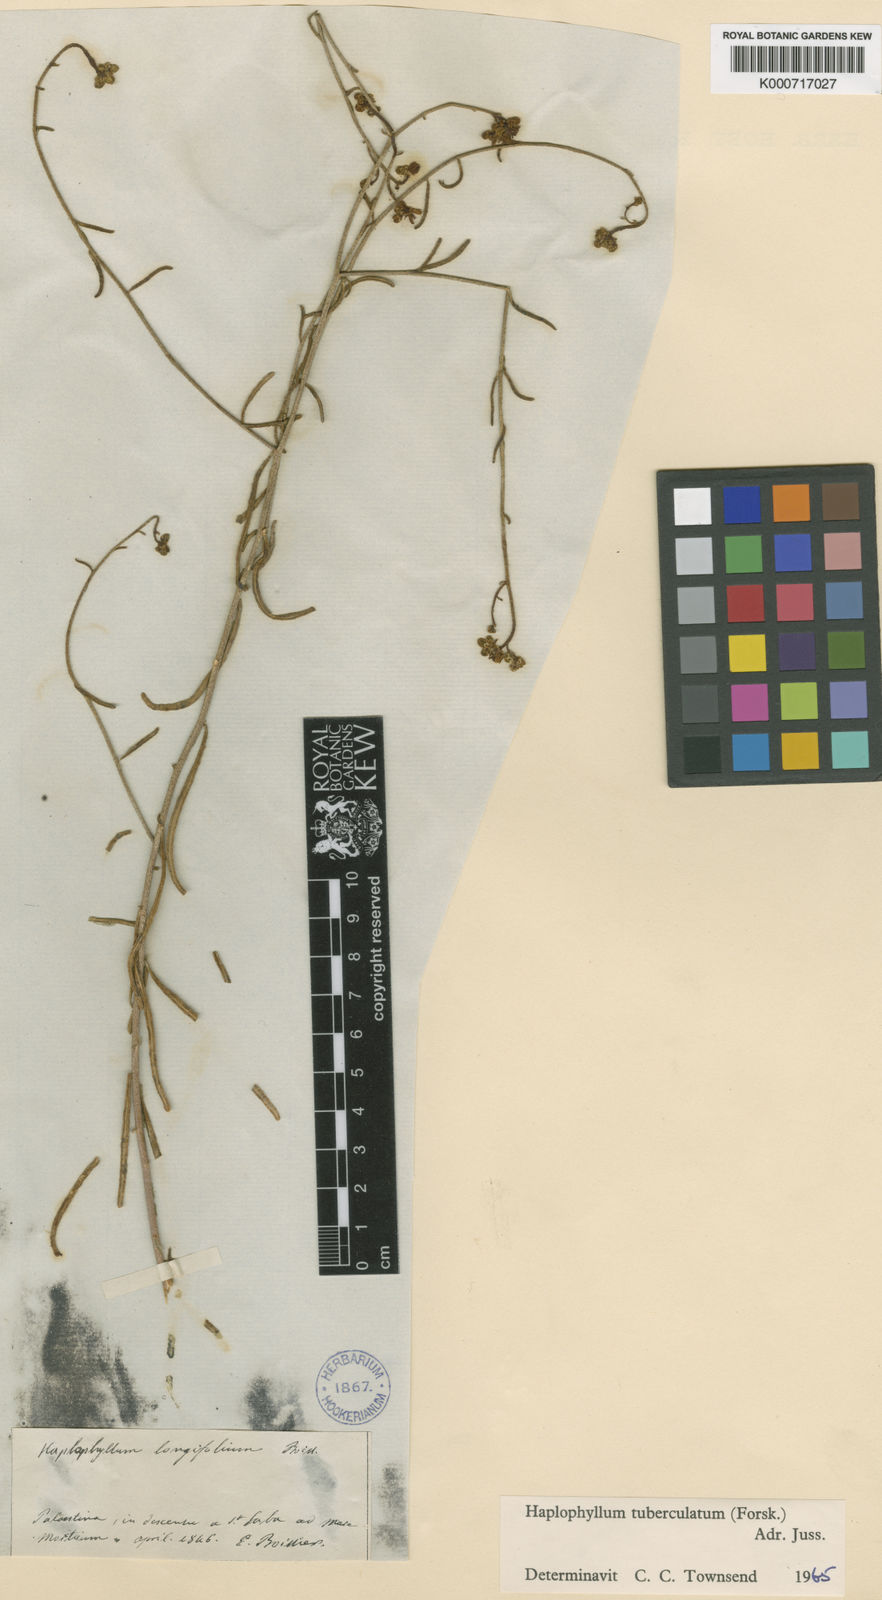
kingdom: Plantae
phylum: Tracheophyta
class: Magnoliopsida
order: Sapindales
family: Rutaceae
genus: Haplophyllum
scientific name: Haplophyllum tuberculatum
